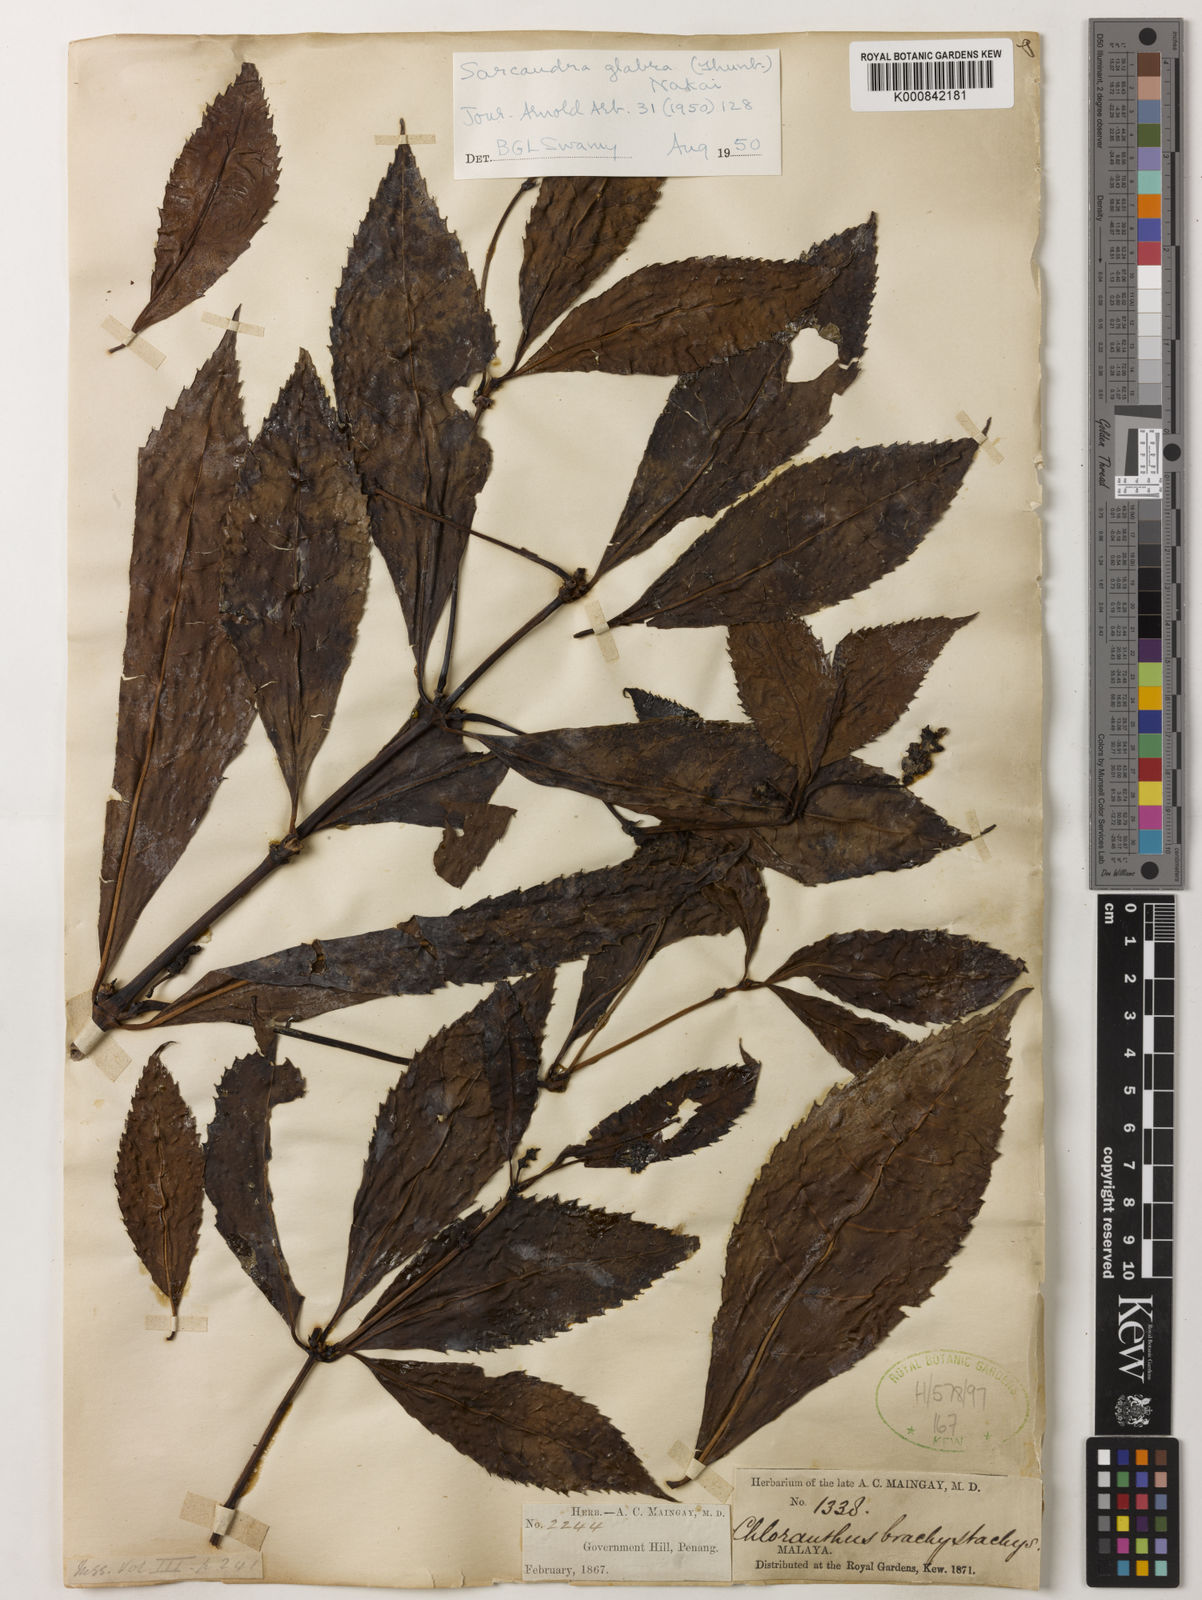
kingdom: Plantae
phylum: Tracheophyta
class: Magnoliopsida
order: Chloranthales
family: Chloranthaceae
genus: Sarcandra
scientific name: Sarcandra glabra
